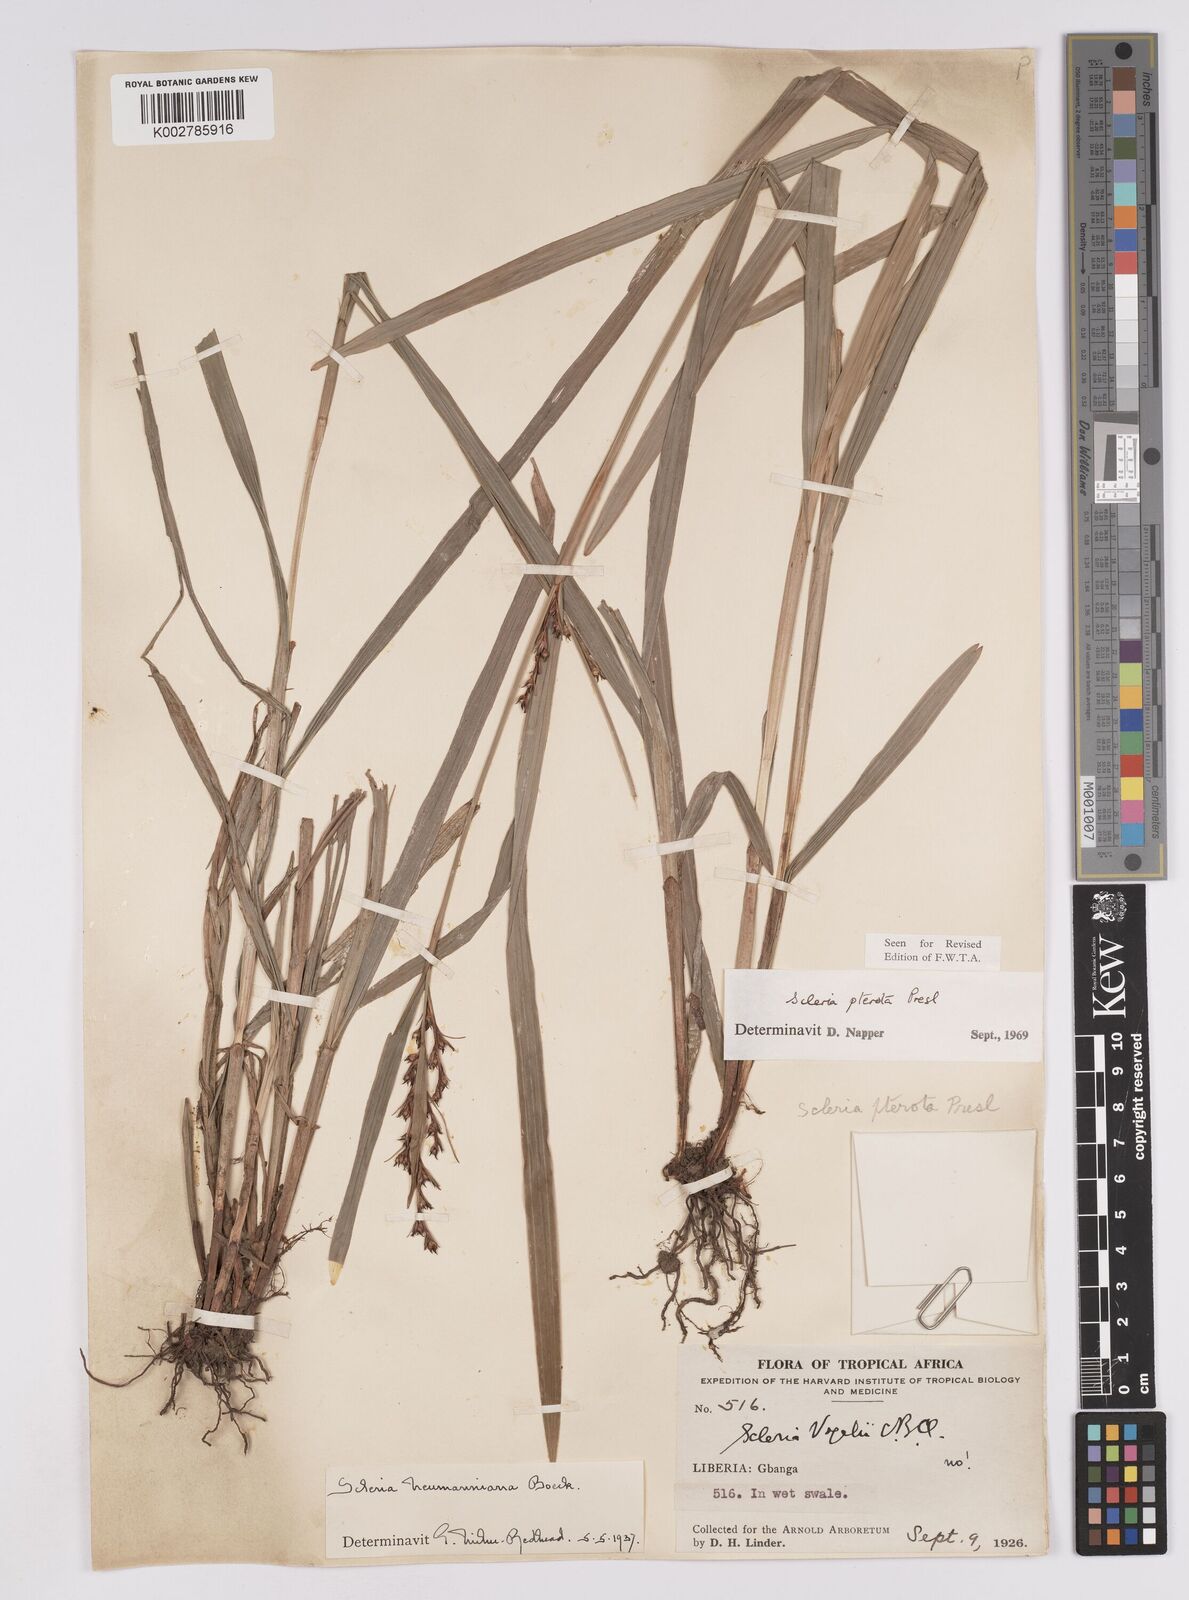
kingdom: Plantae
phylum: Tracheophyta
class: Liliopsida
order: Poales
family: Cyperaceae
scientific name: Cyperaceae
